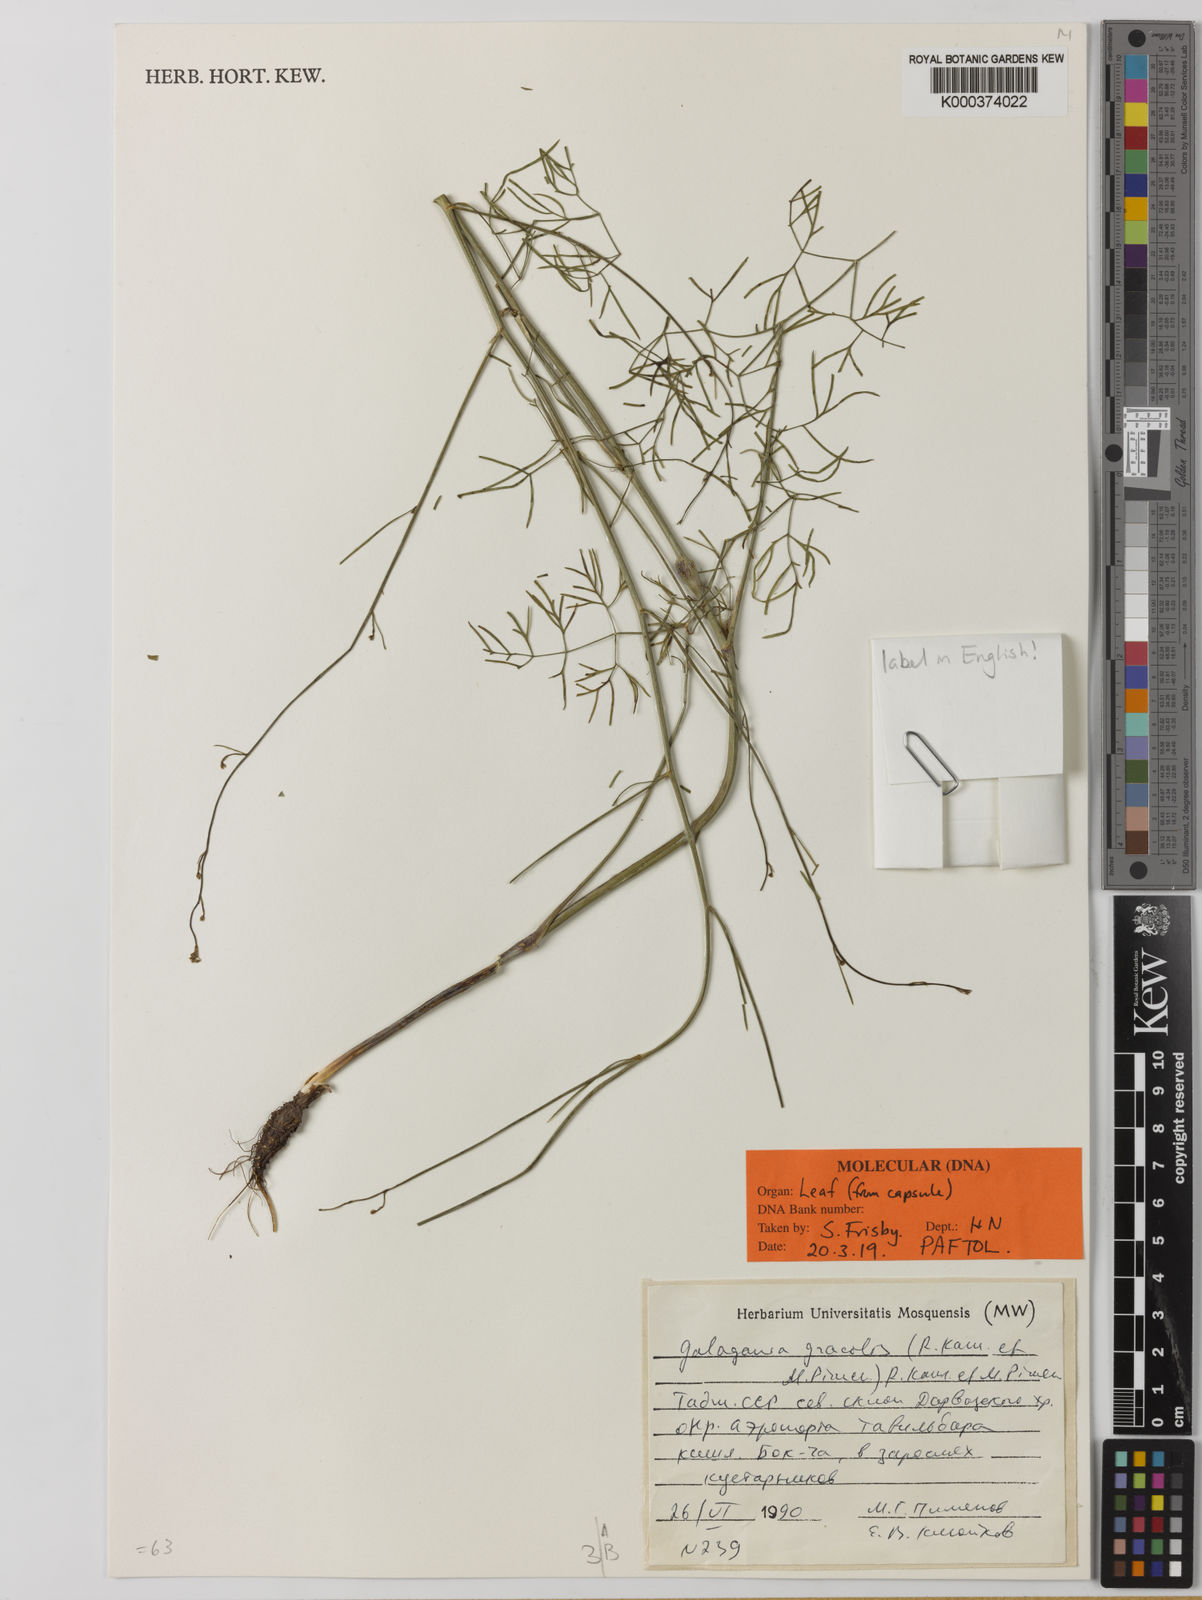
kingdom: Plantae
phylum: Tracheophyta
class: Magnoliopsida
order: Apiales
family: Apiaceae
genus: Galagania
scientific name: Galagania gracilis
